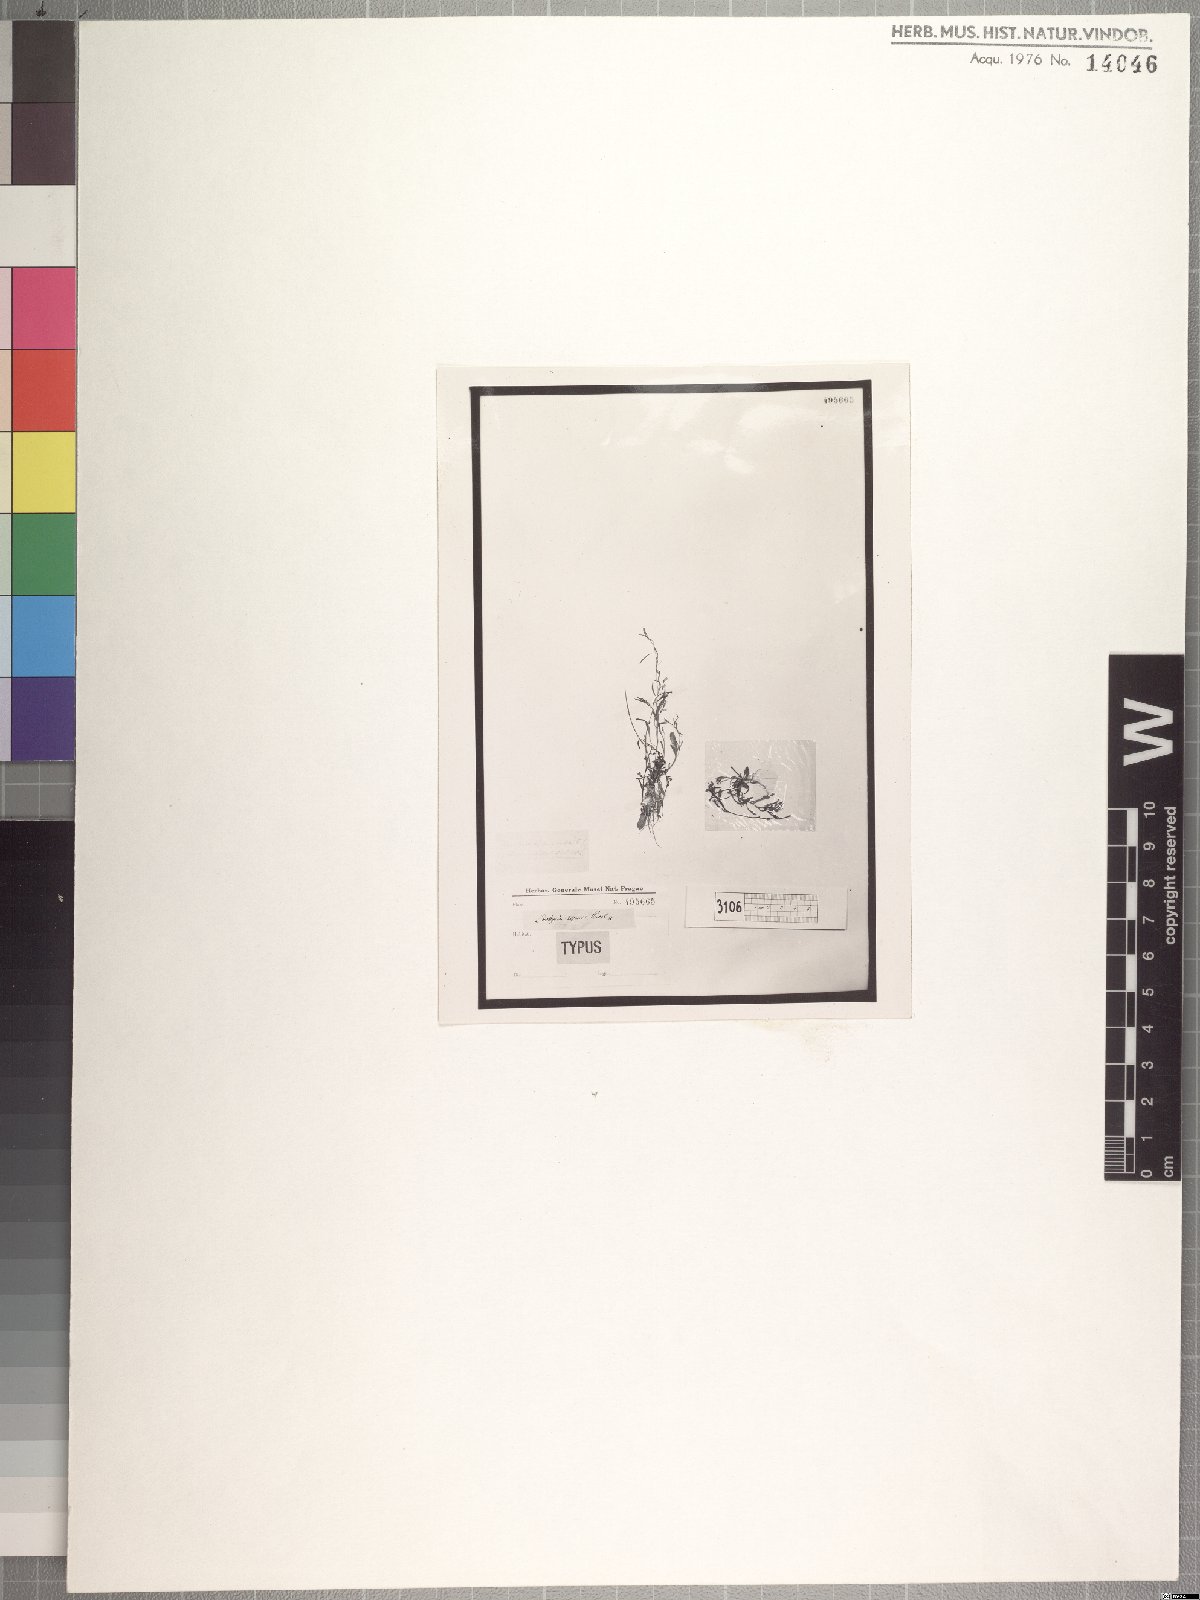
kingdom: Plantae
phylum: Tracheophyta
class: Magnoliopsida
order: Asterales
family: Campanulaceae
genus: Wimmerella
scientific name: Wimmerella secunda
